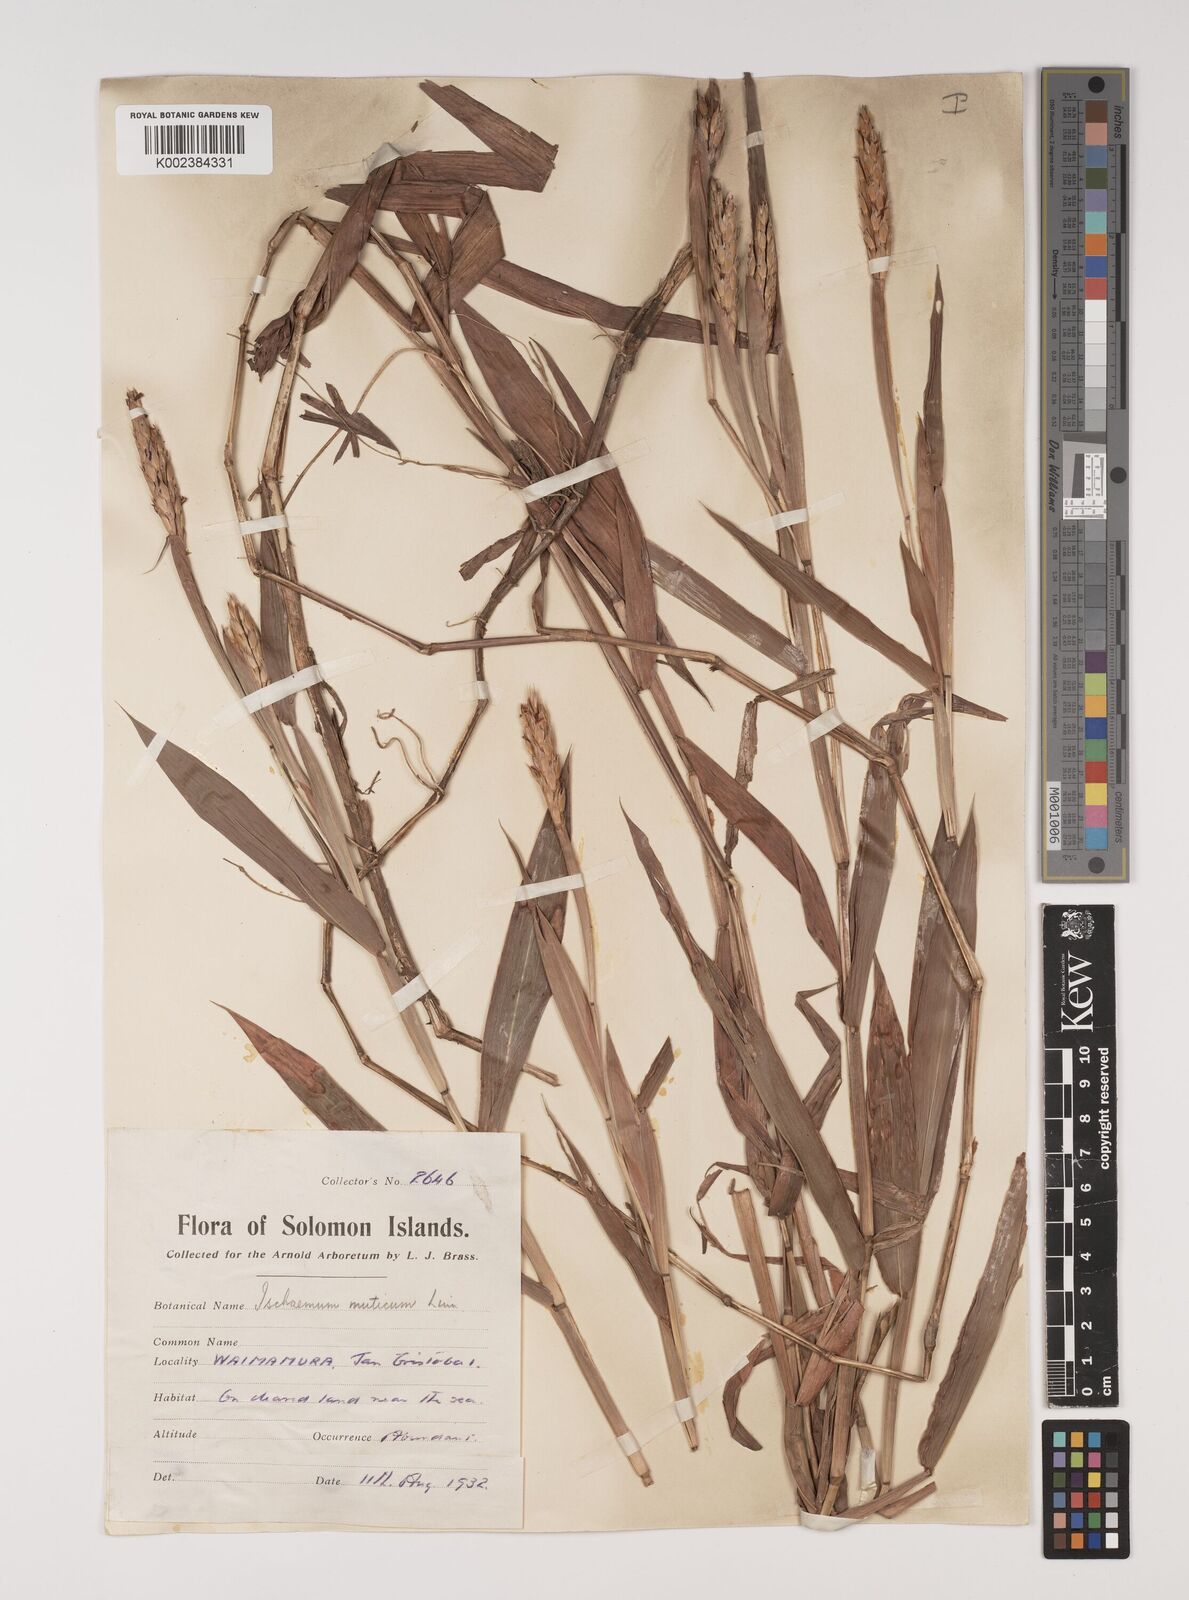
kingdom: Plantae
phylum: Tracheophyta
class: Liliopsida
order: Poales
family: Poaceae
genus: Ischaemum
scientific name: Ischaemum muticum
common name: Drought grass
